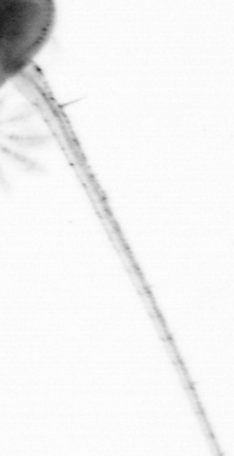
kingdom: Animalia
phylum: Arthropoda
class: Copepoda
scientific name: Copepoda
